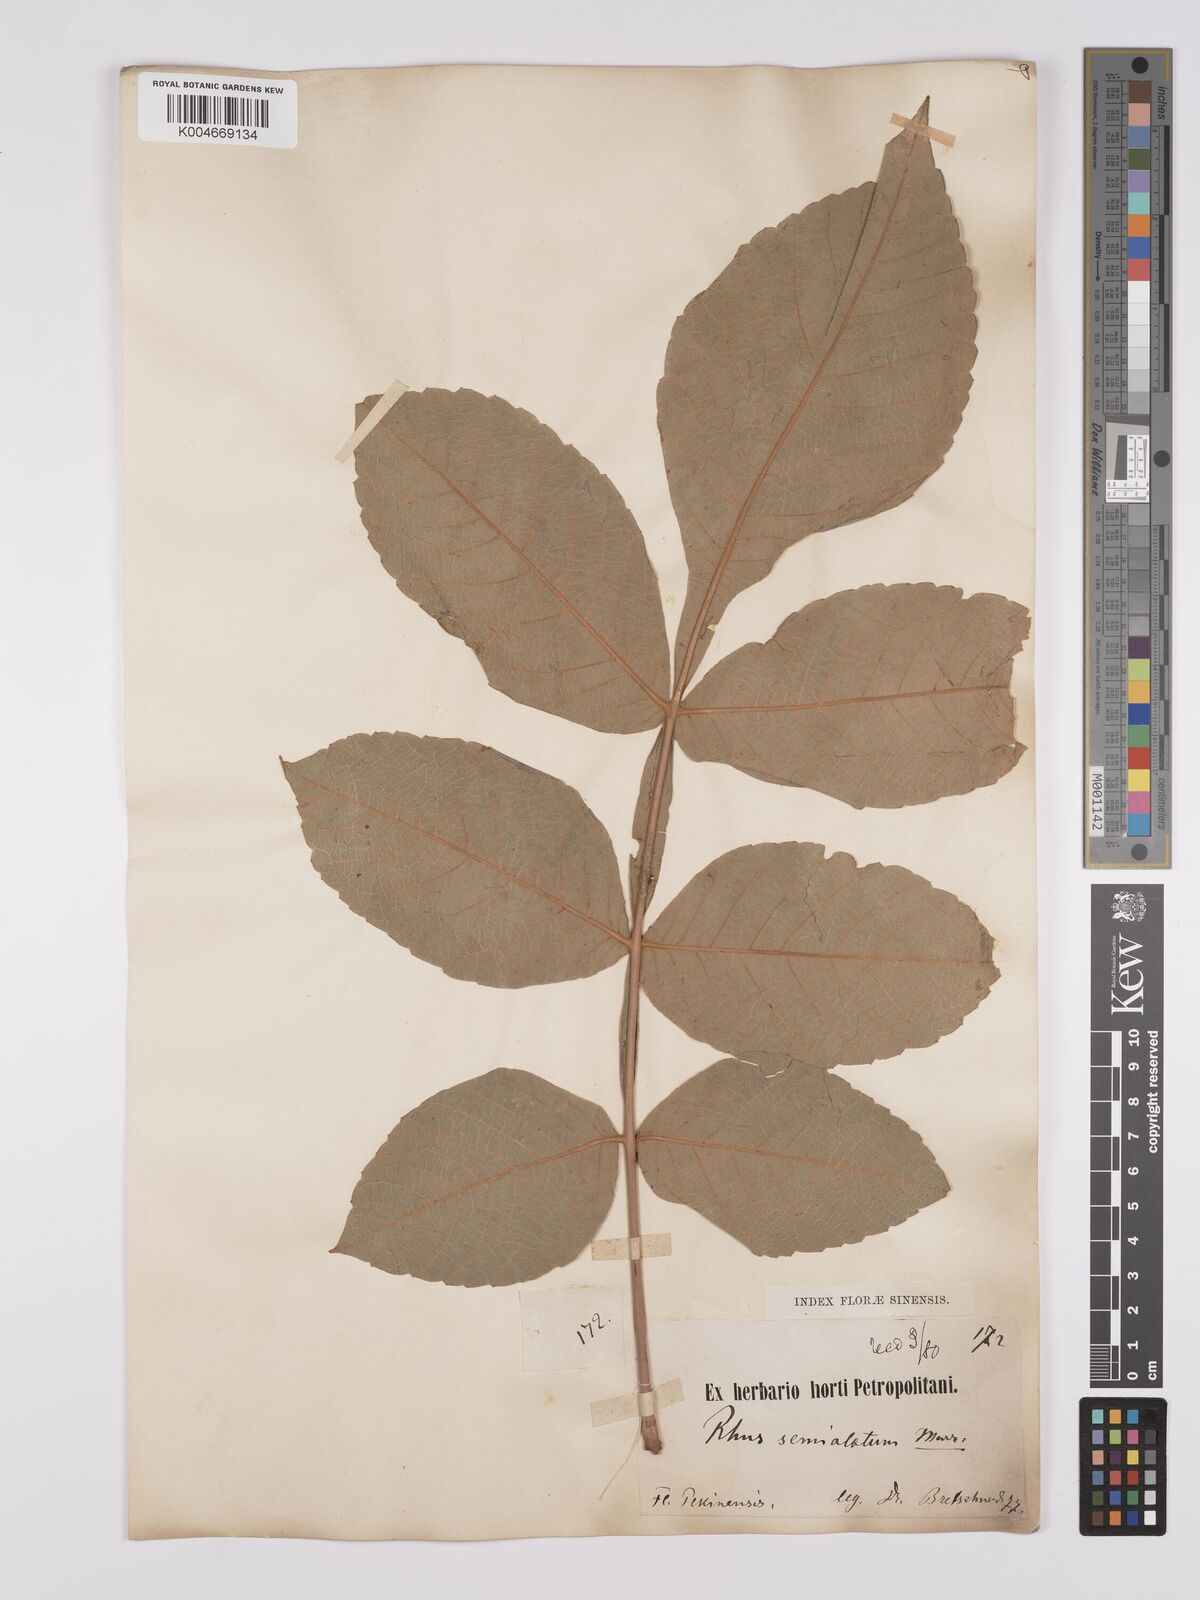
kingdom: Plantae
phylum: Tracheophyta
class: Magnoliopsida
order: Sapindales
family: Anacardiaceae
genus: Rhus
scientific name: Rhus chinensis
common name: Chinese gall
